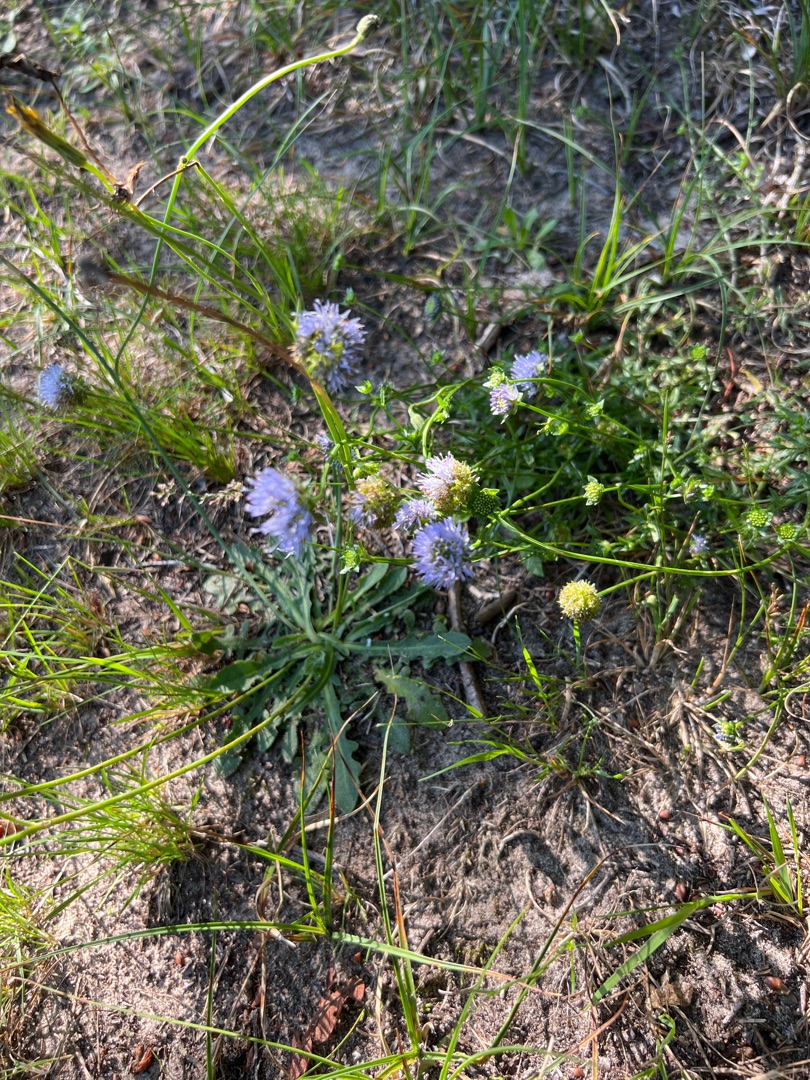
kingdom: Plantae
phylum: Tracheophyta
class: Magnoliopsida
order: Asterales
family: Campanulaceae
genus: Jasione
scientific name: Jasione montana
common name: Blåmunke
